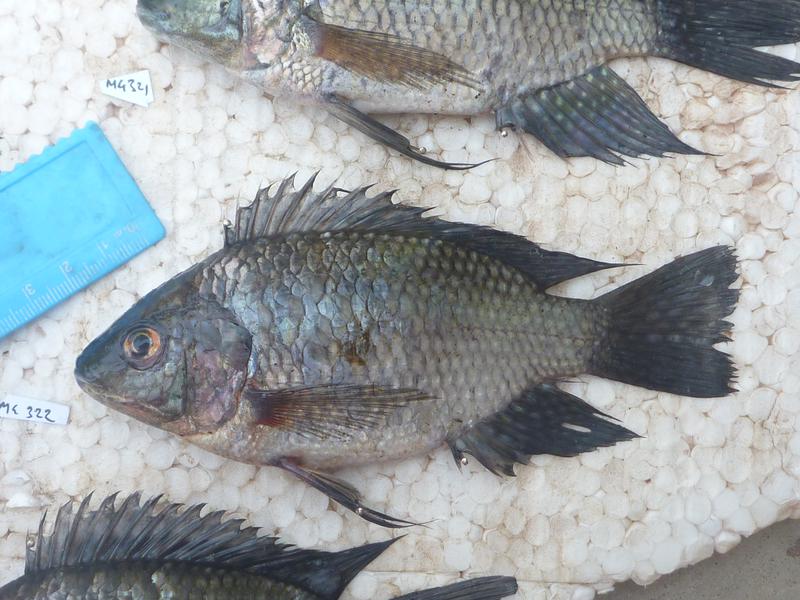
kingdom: Animalia
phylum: Chordata
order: Perciformes
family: Cichlidae
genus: Oreochromis
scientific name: Oreochromis leucostictus
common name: Blue spotted tilapia
